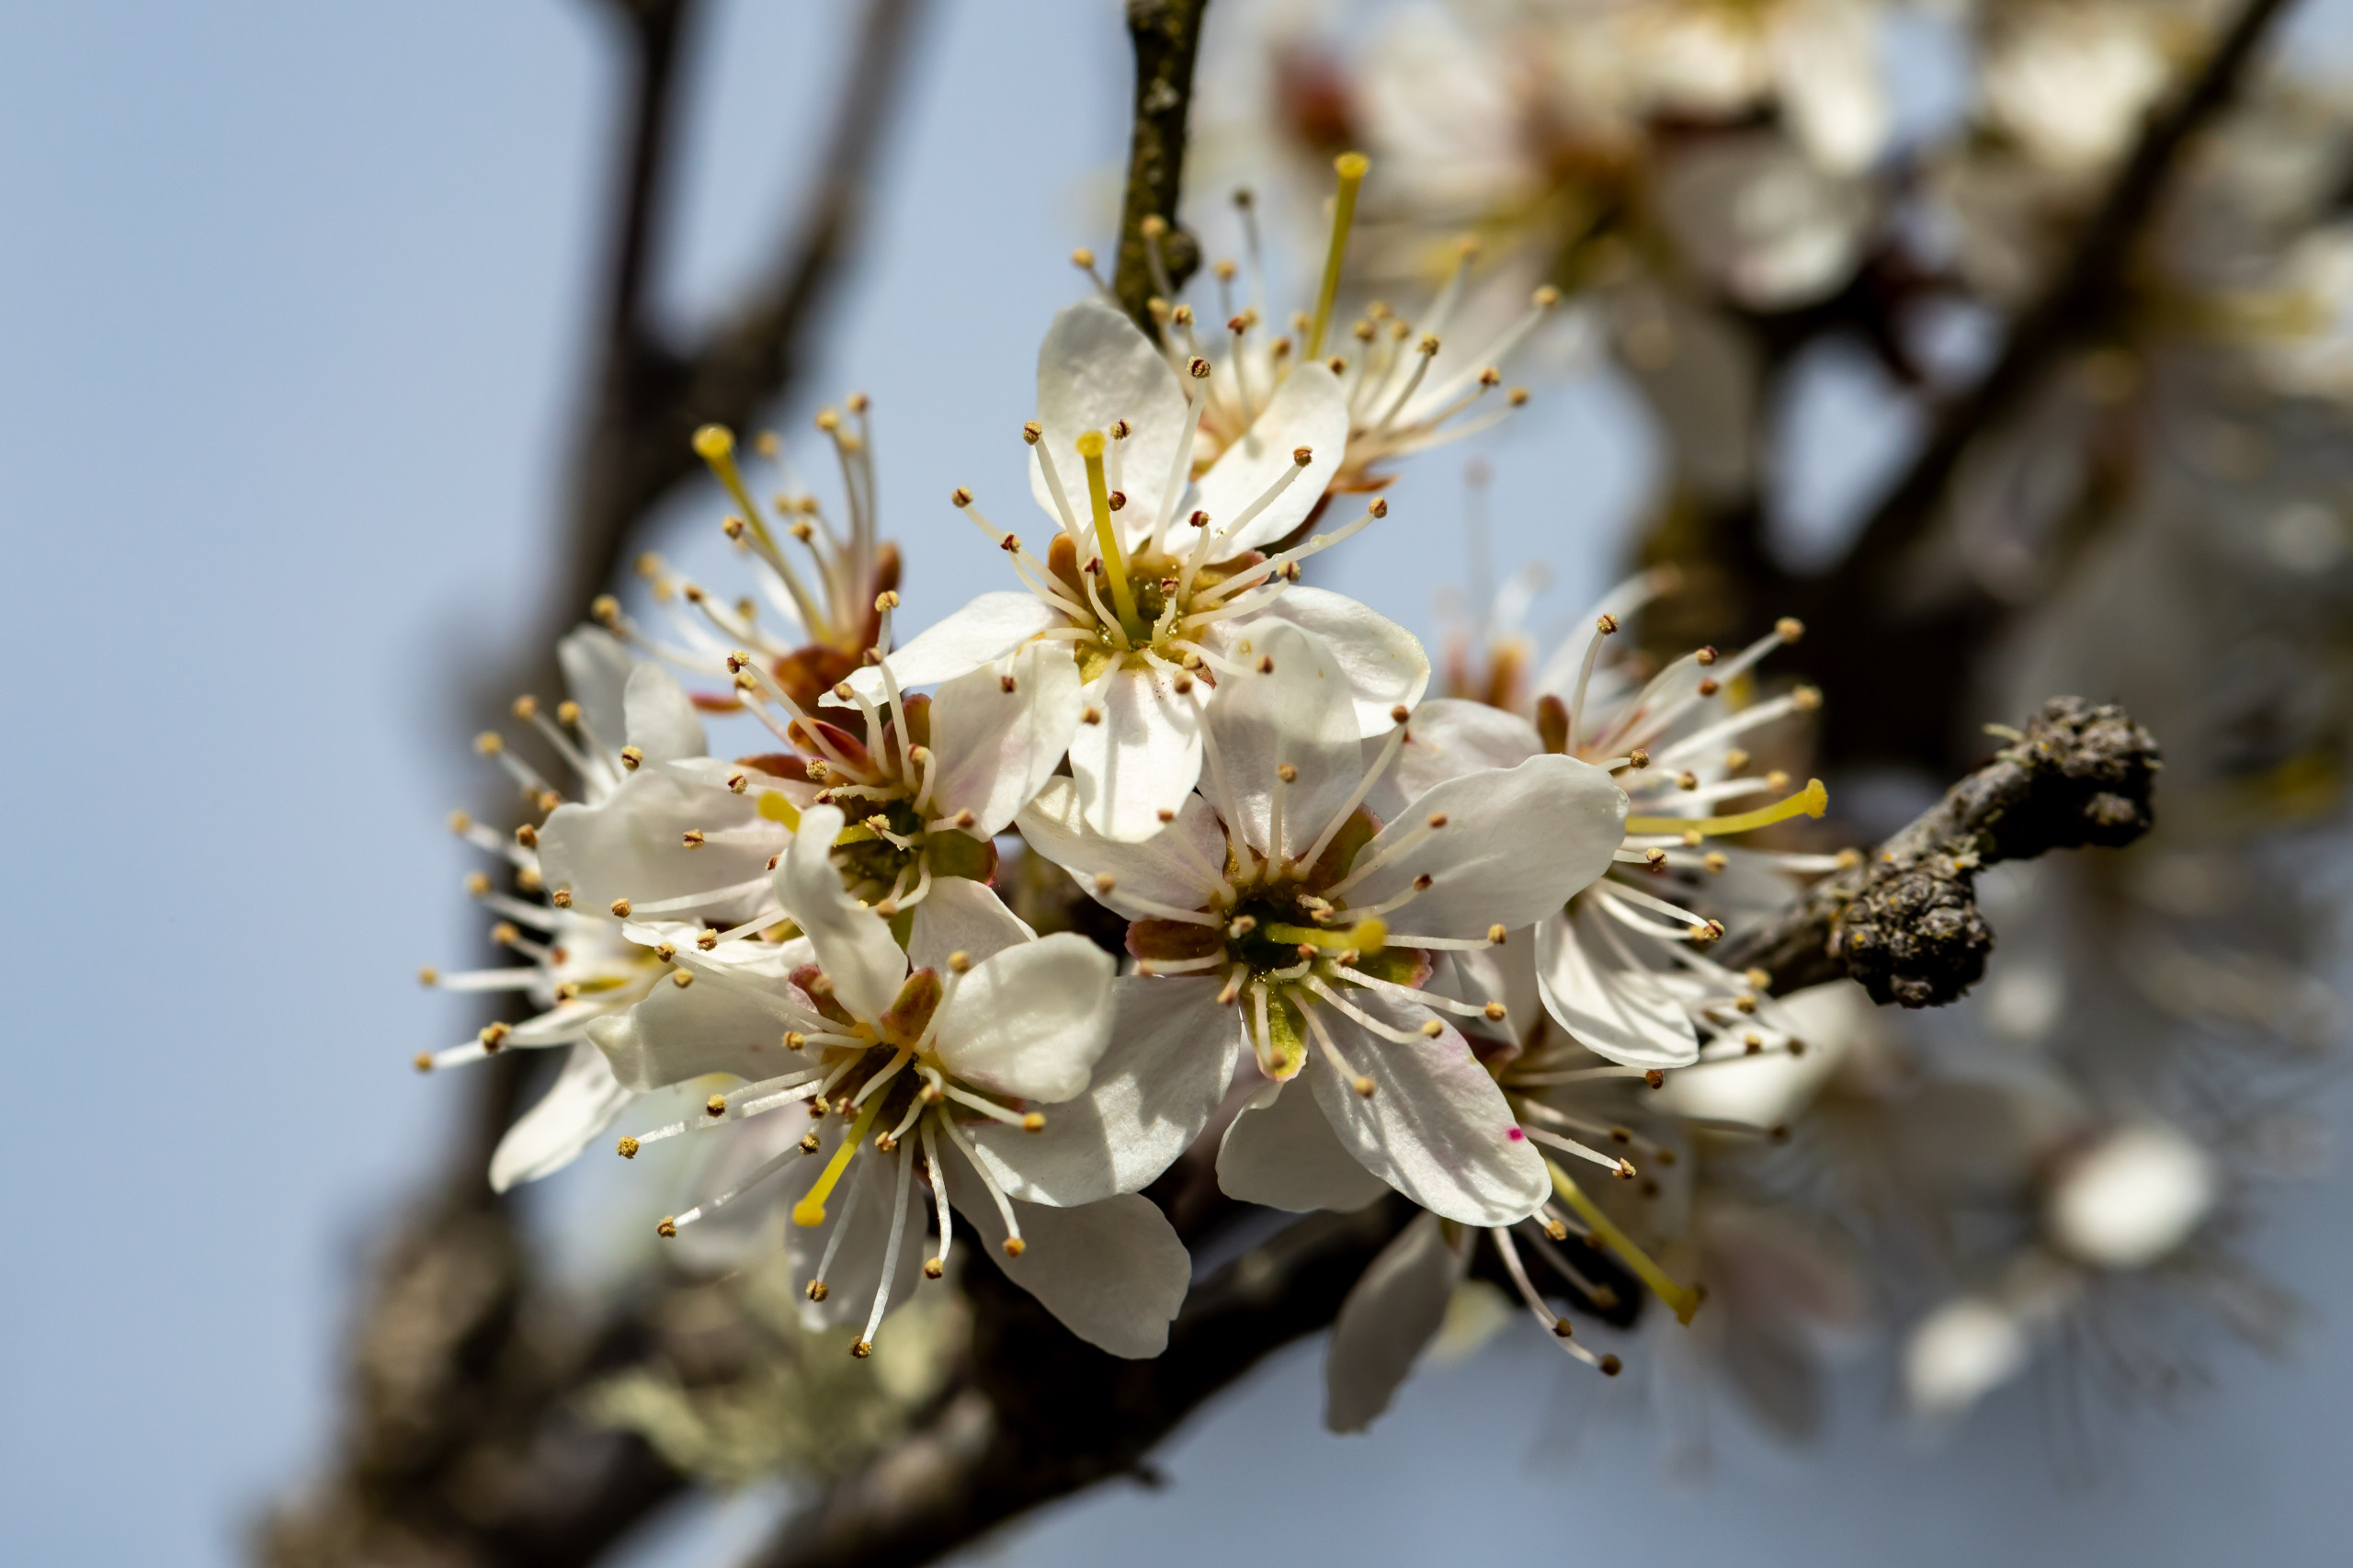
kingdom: Plantae
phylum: Tracheophyta
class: Magnoliopsida
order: Rosales
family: Rosaceae
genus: Prunus
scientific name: Prunus spinosa
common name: Slåen
